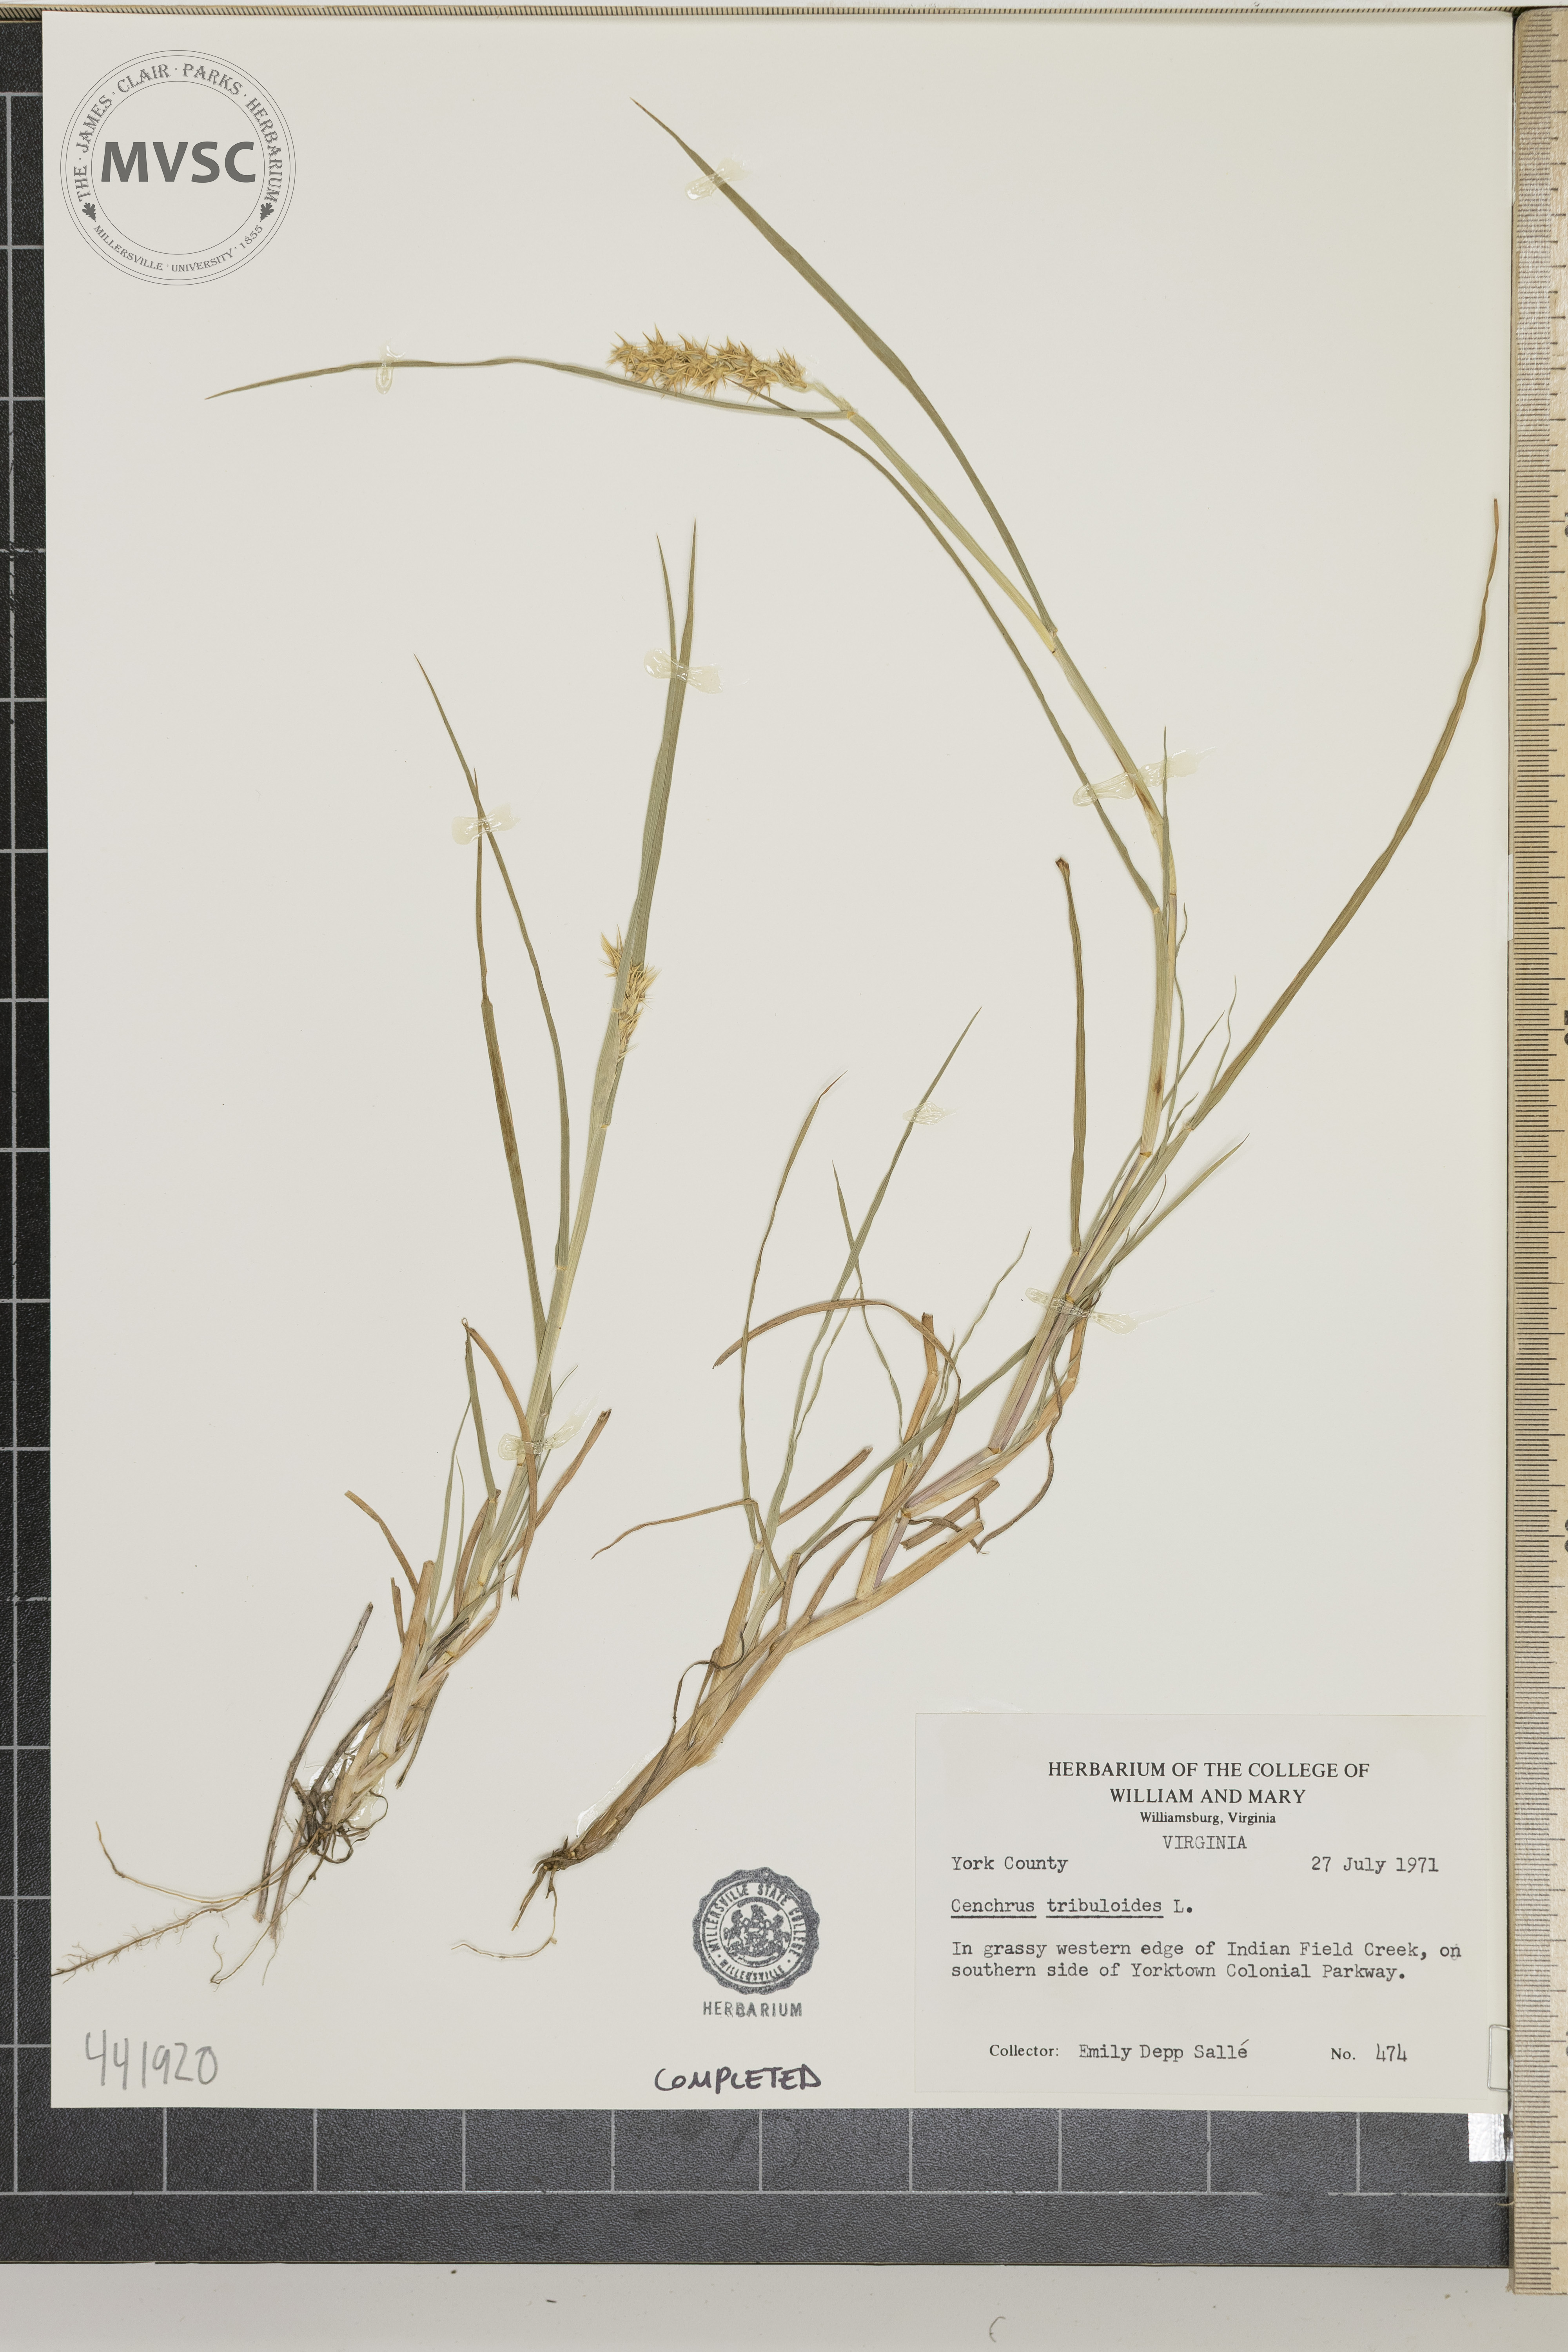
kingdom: Plantae
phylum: Tracheophyta
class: Liliopsida
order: Poales
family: Poaceae
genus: Cenchrus
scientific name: Cenchrus tribuloides
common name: Dune sandbur
